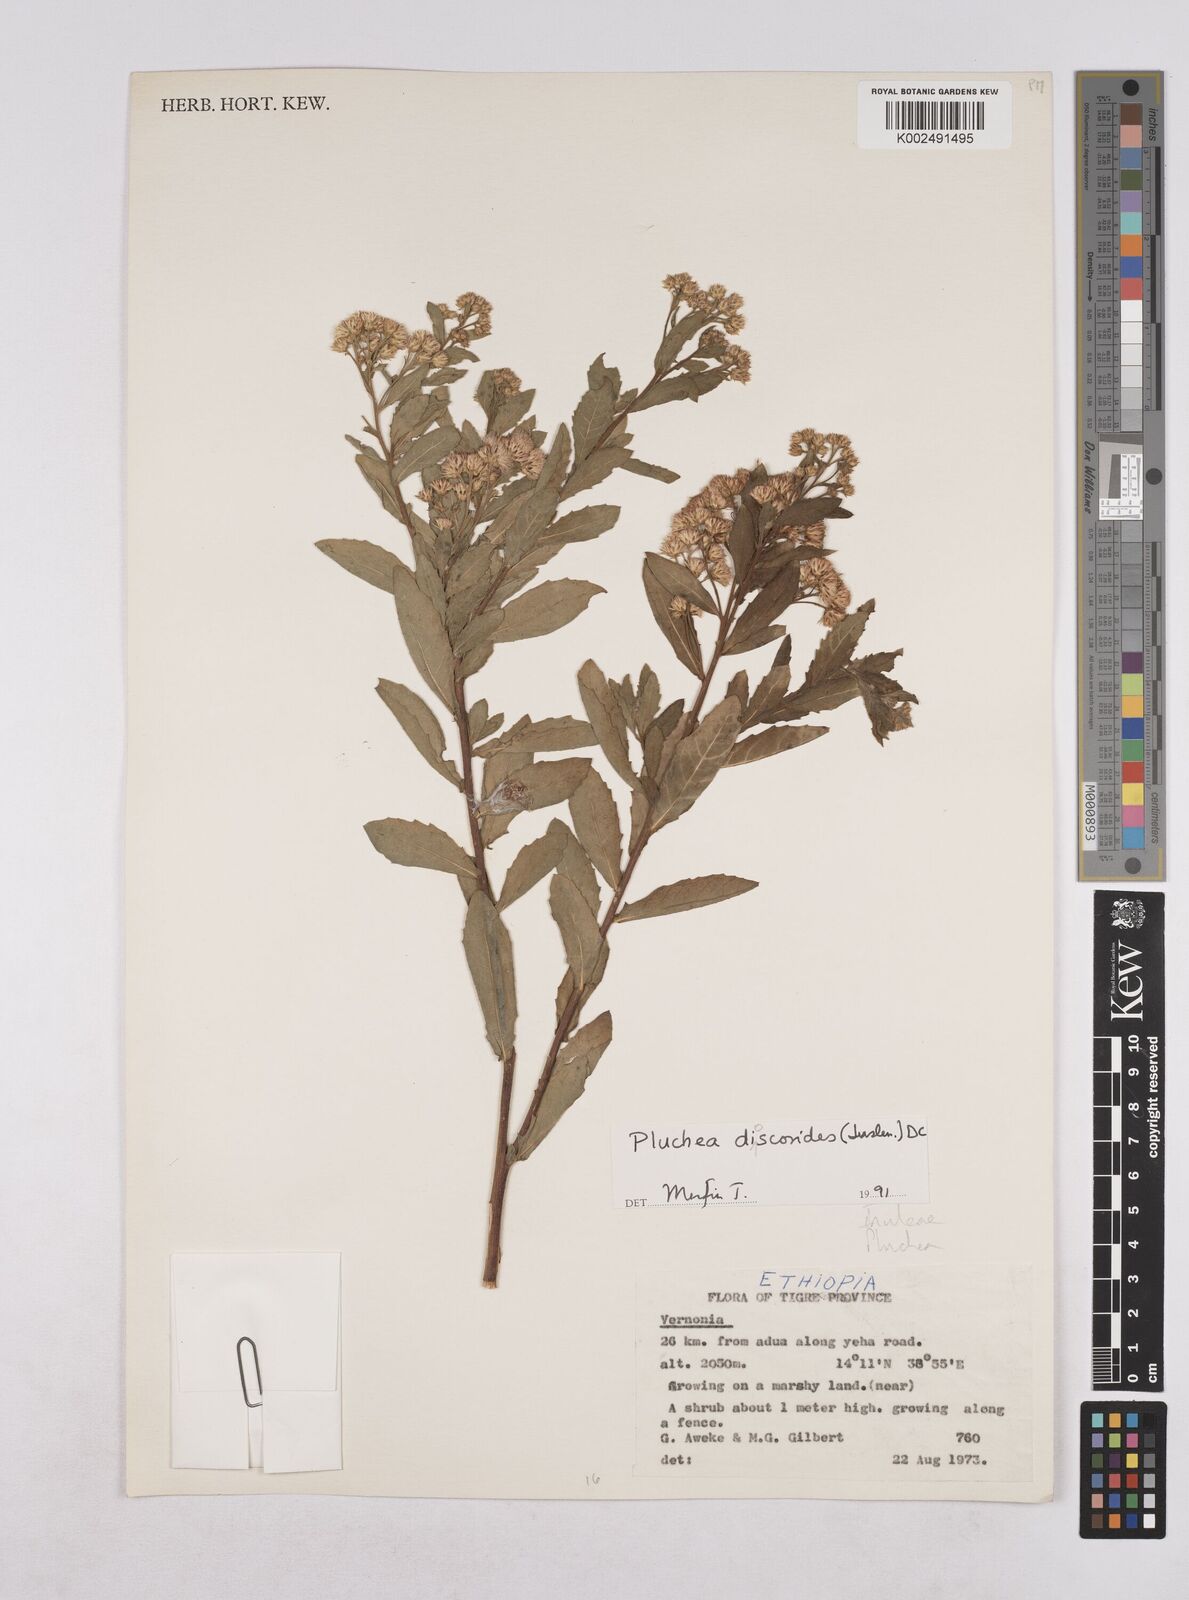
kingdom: Plantae
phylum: Tracheophyta
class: Magnoliopsida
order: Asterales
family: Asteraceae
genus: Pluchea
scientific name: Pluchea dioscoridis
